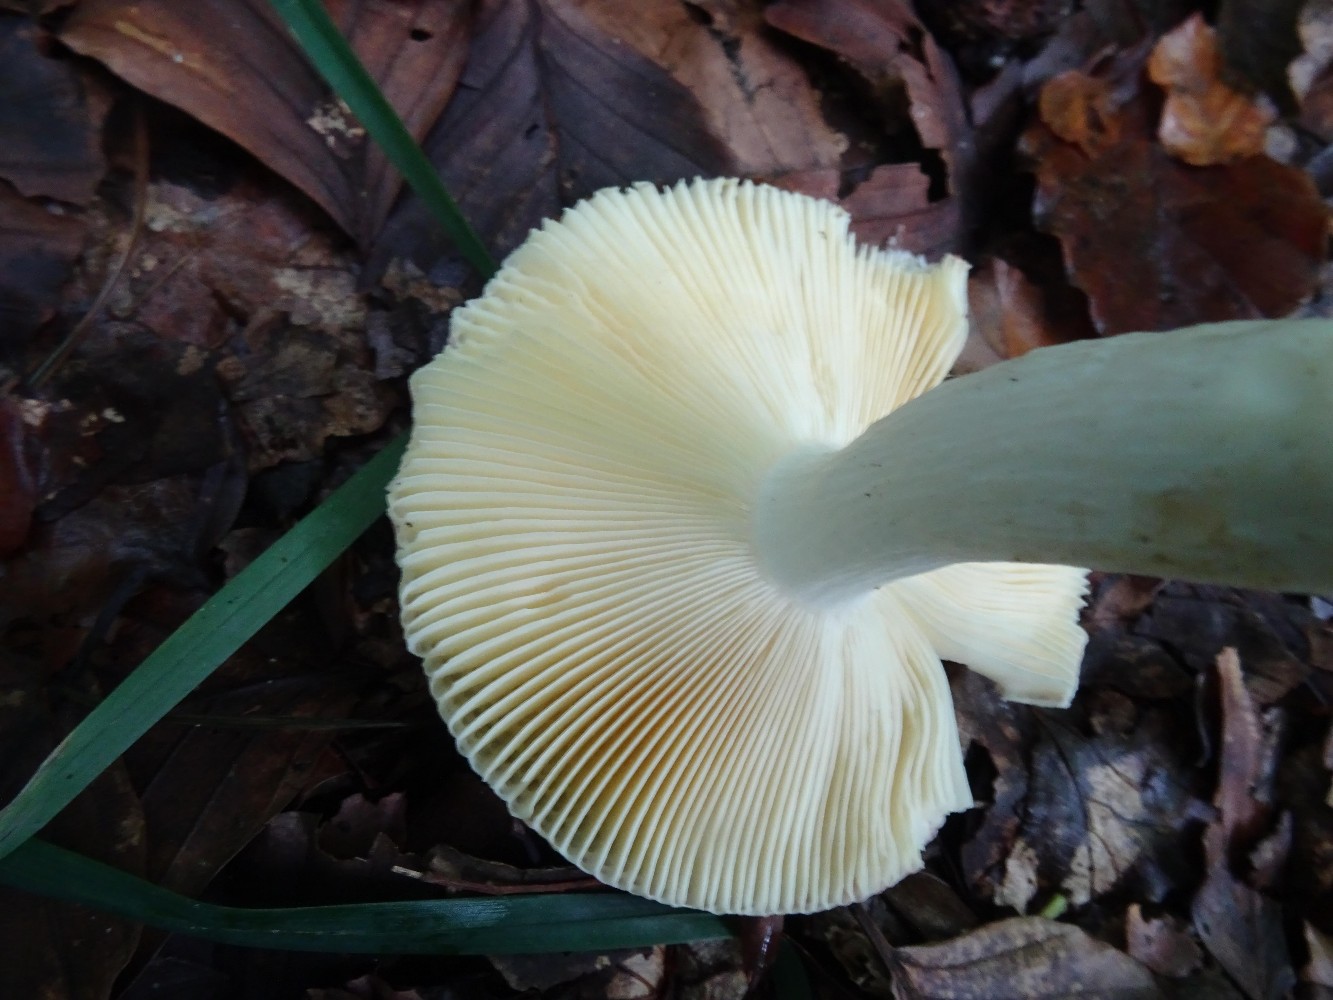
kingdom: Fungi
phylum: Basidiomycota
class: Agaricomycetes
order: Russulales
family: Russulaceae
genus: Russula
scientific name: Russula veternosa
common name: blødkødet skørhat
